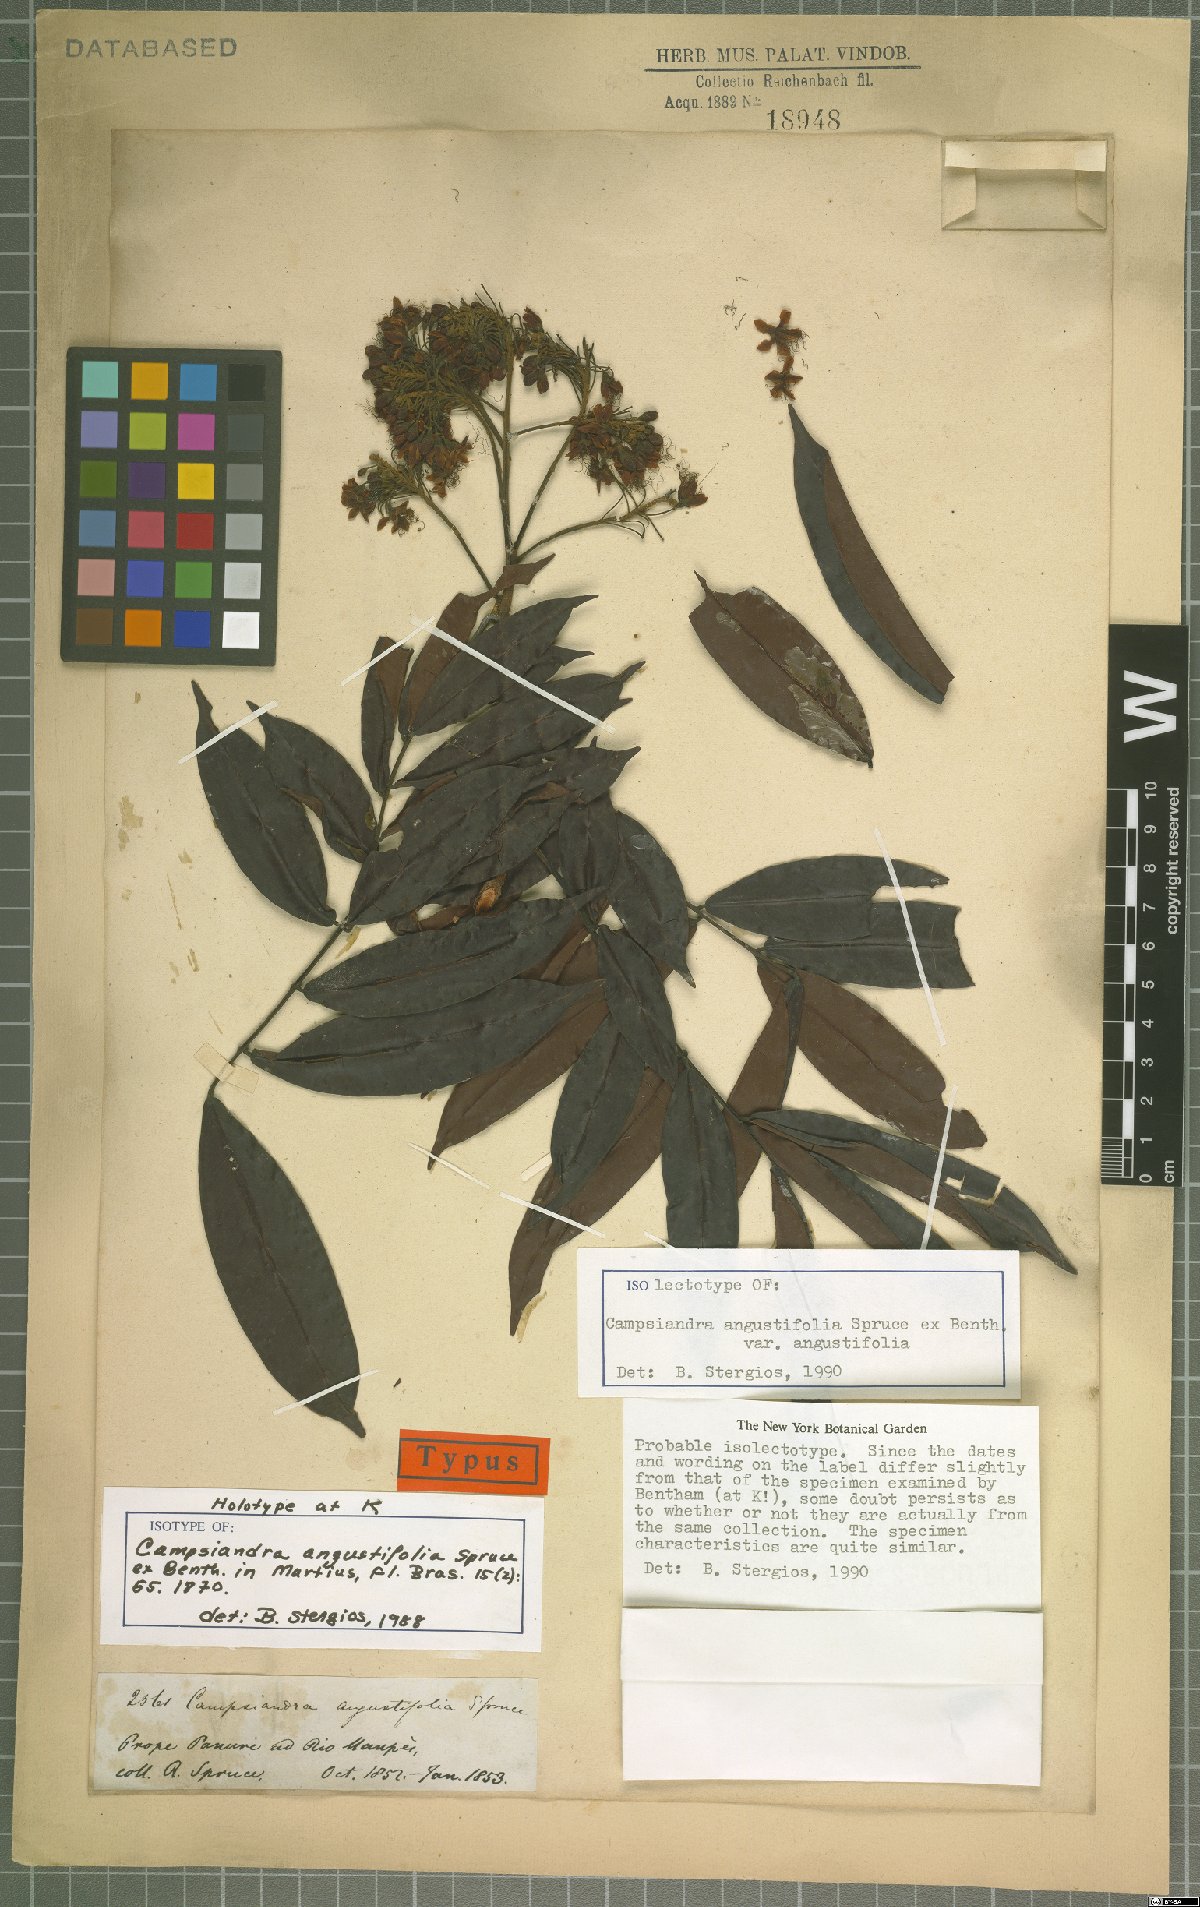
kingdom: Plantae
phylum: Tracheophyta
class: Magnoliopsida
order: Fabales
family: Fabaceae
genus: Campsiandra
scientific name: Campsiandra angustifolia
